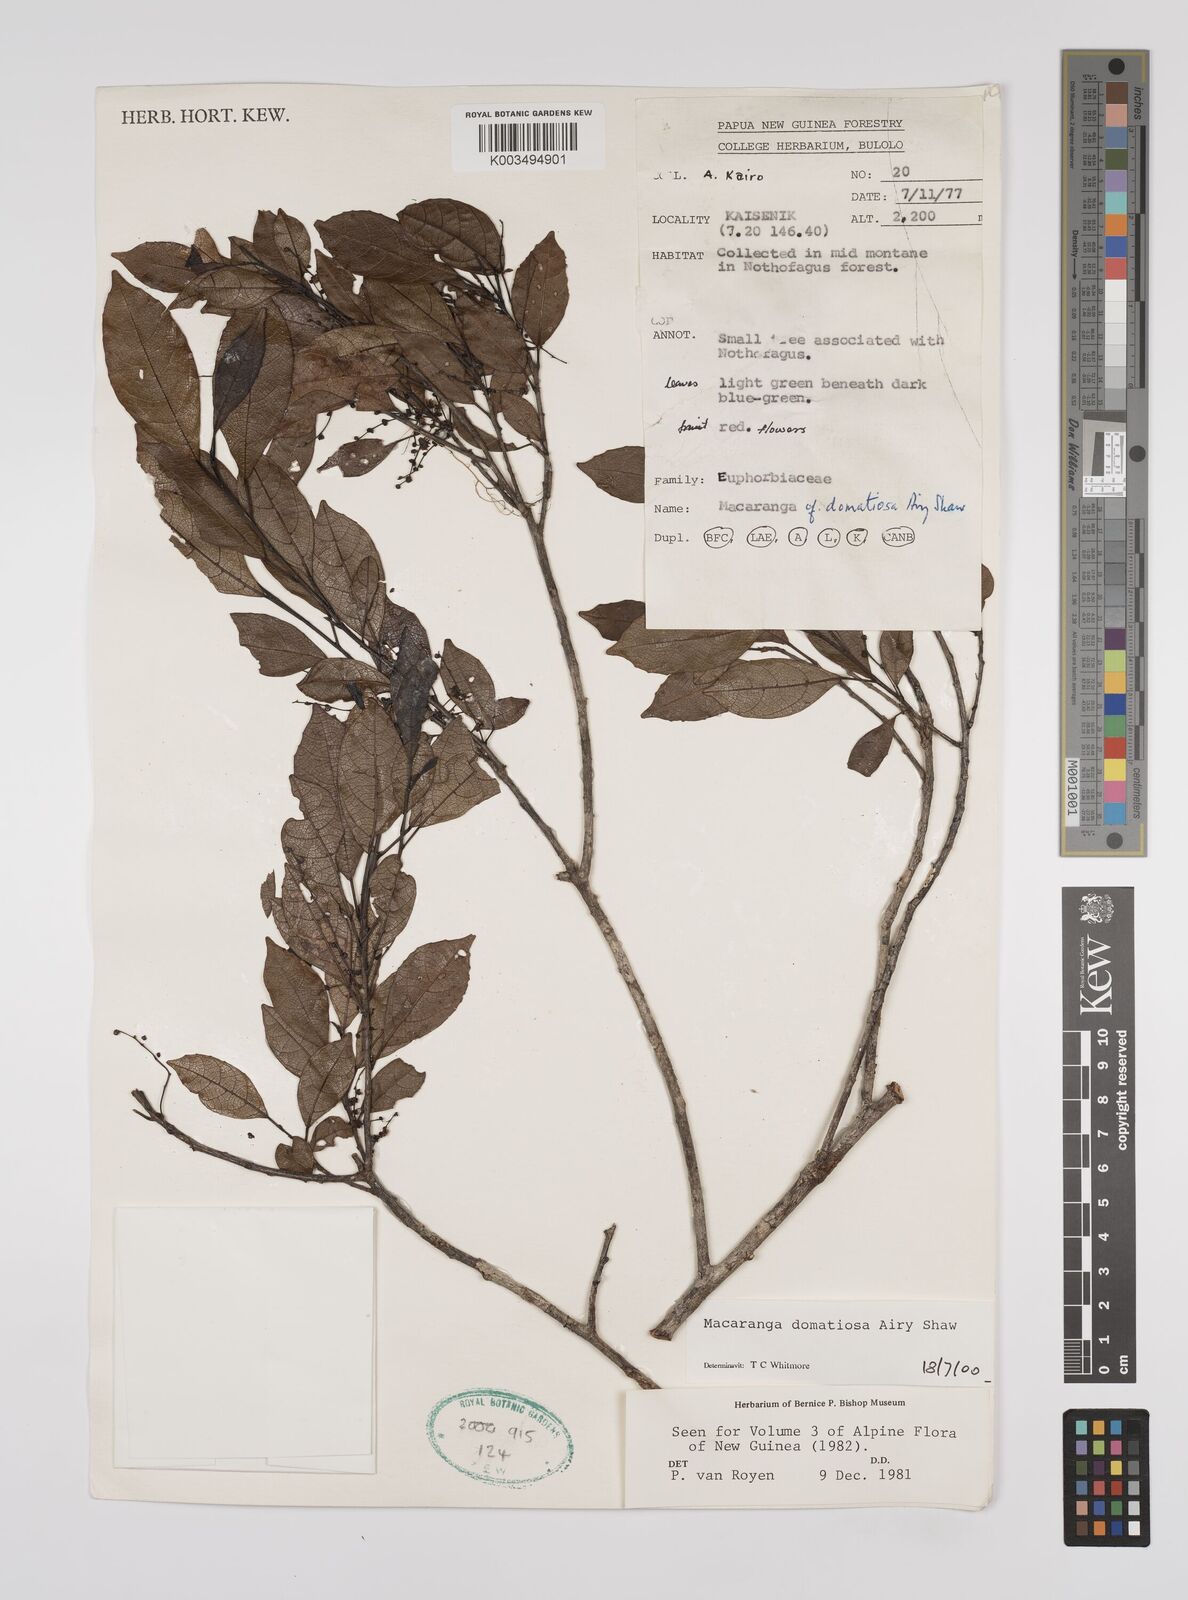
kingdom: Plantae
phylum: Tracheophyta
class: Magnoliopsida
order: Malpighiales
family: Euphorbiaceae
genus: Macaranga
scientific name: Macaranga domatiosa
